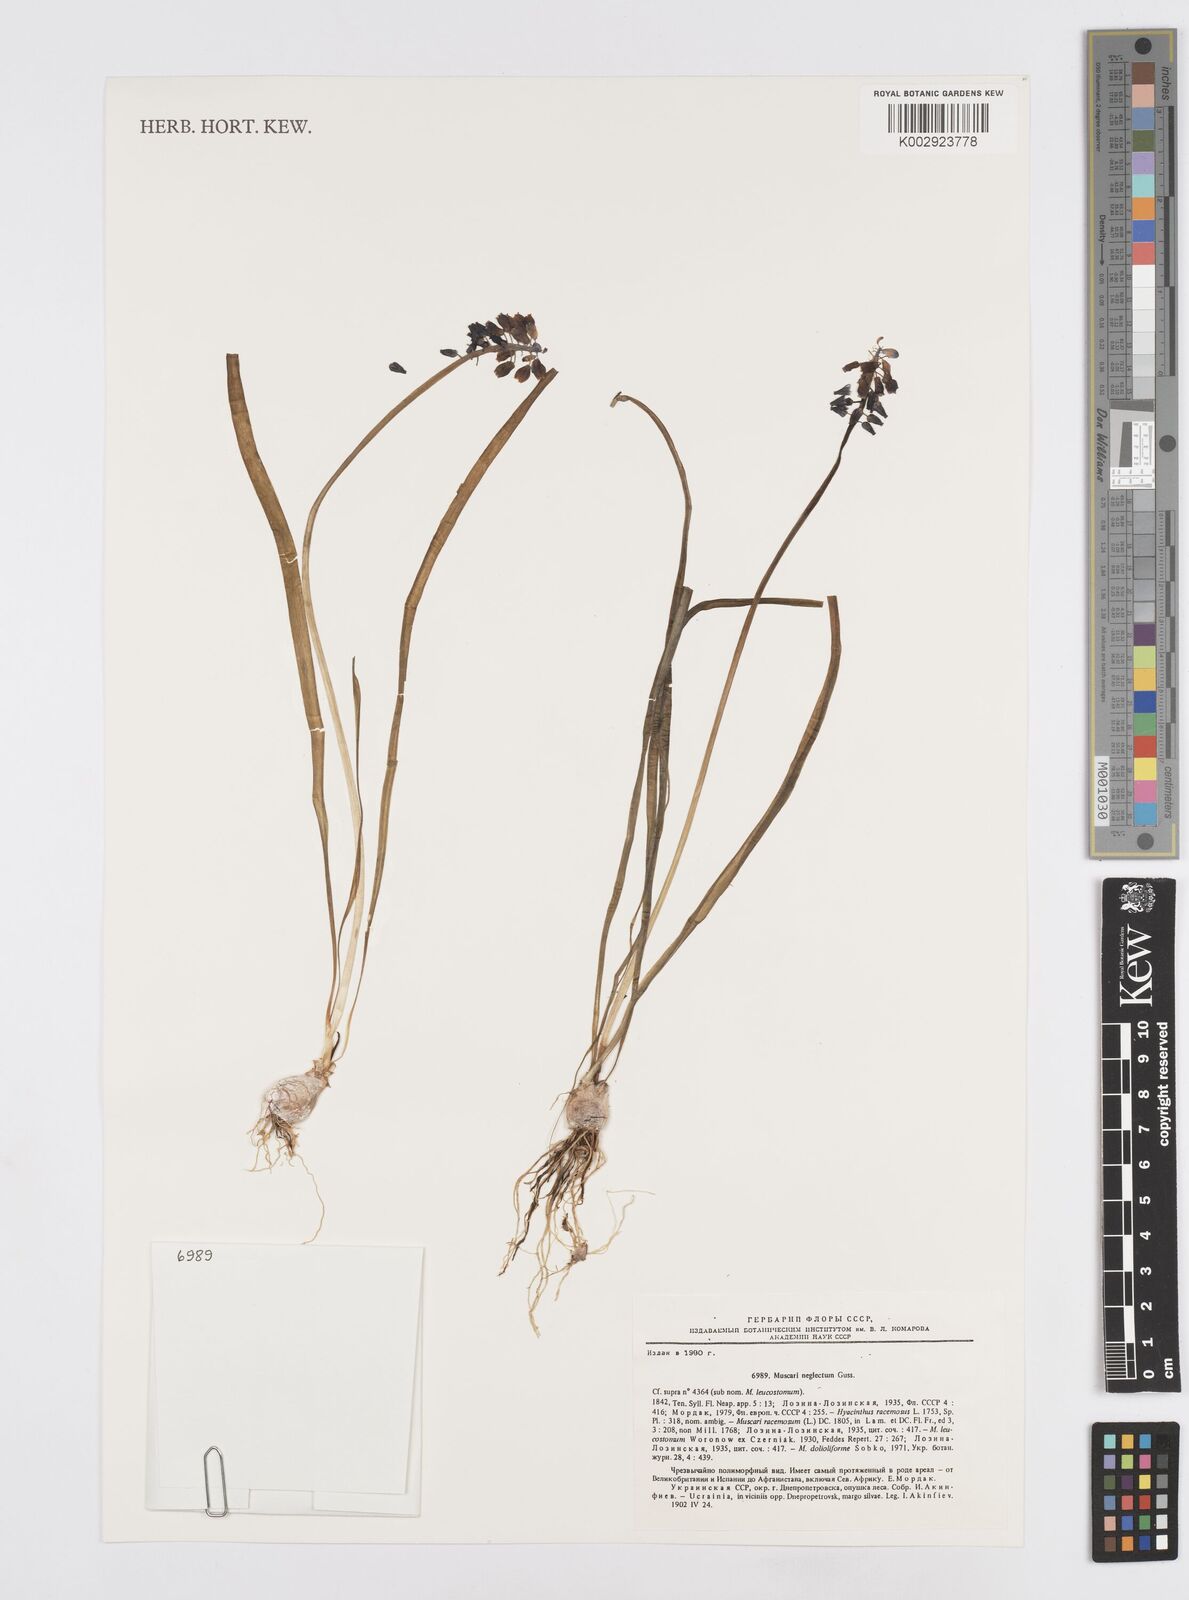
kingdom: Plantae
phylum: Tracheophyta
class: Liliopsida
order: Asparagales
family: Asparagaceae
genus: Muscari
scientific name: Muscari neglectum
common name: Grape-hyacinth
